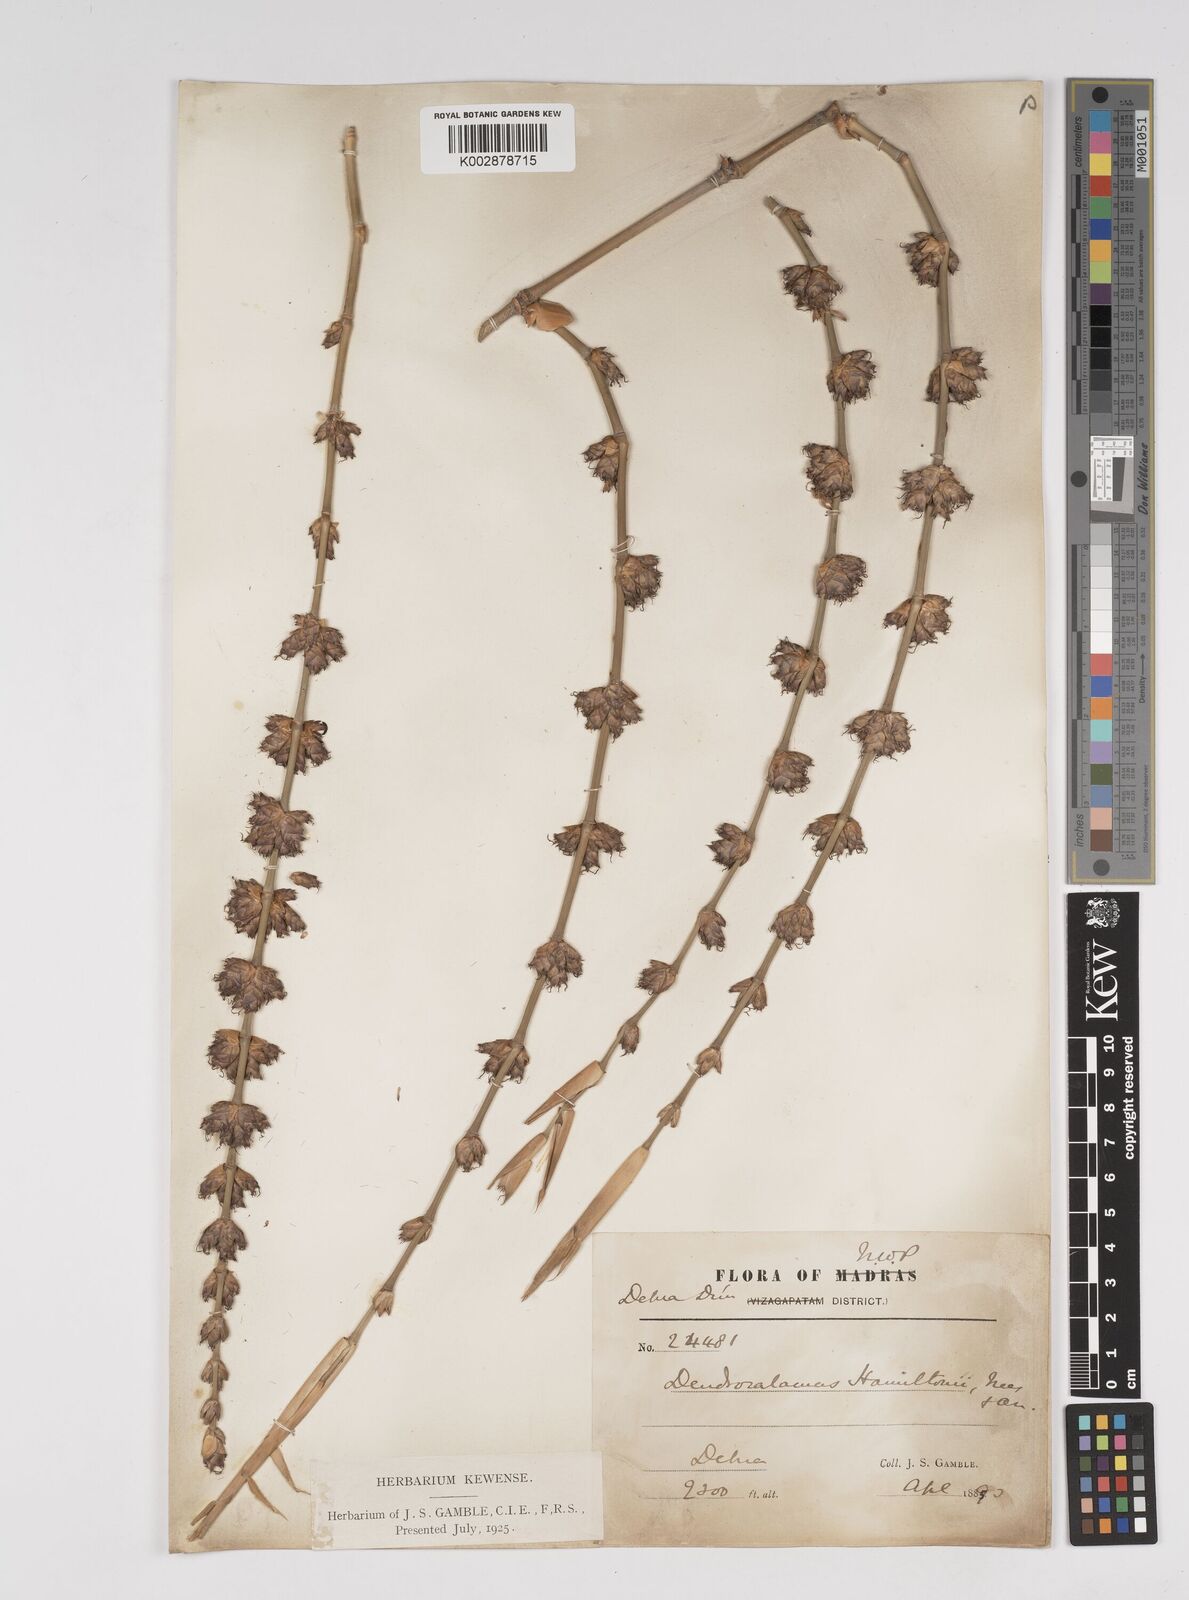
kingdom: Plantae
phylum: Tracheophyta
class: Liliopsida
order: Poales
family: Poaceae
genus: Dendrocalamus
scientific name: Dendrocalamus hamiltonii
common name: Tama bamboo
